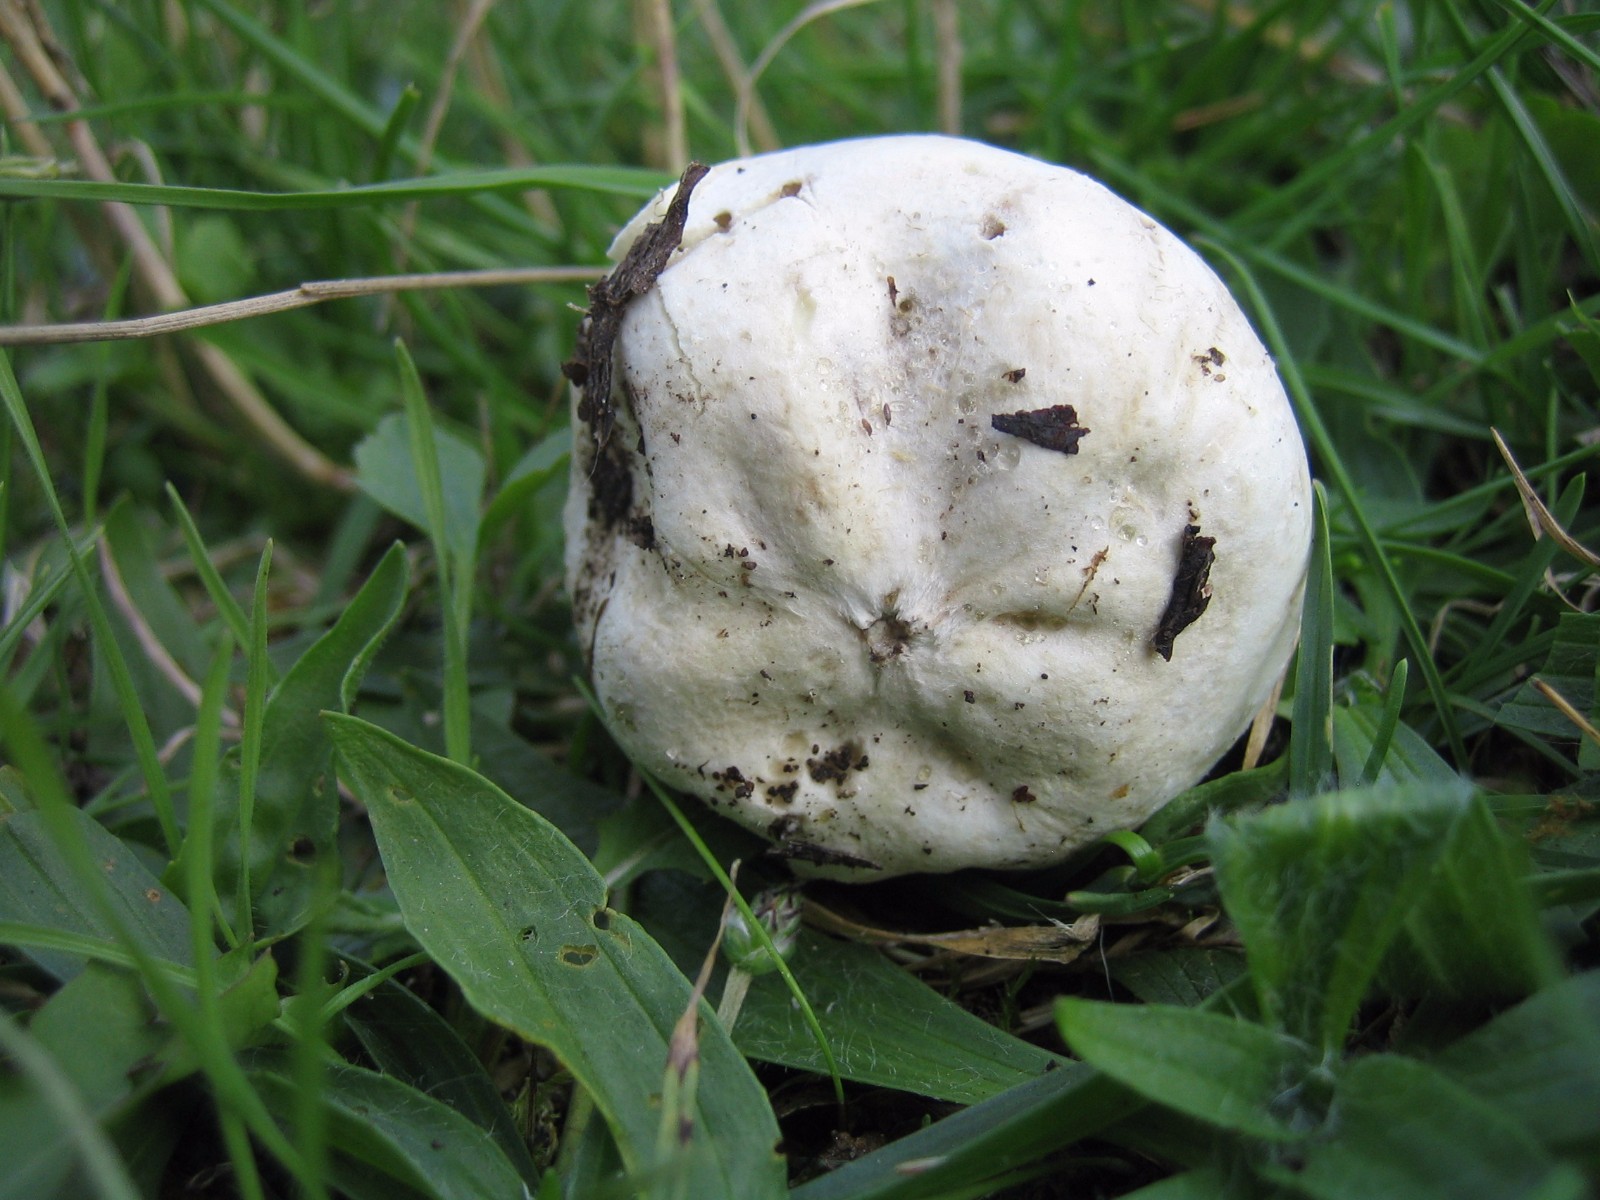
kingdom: Fungi
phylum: Basidiomycota
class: Agaricomycetes
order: Agaricales
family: Lycoperdaceae
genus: Bovista
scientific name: Bovista
